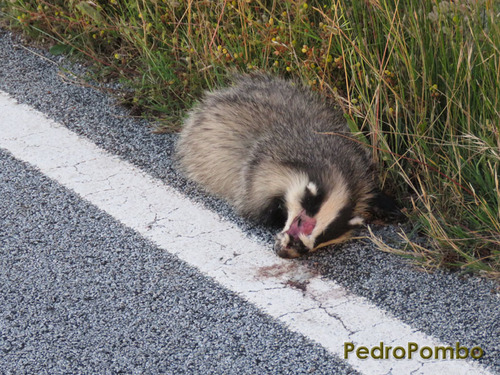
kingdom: Animalia
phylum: Chordata
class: Mammalia
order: Carnivora
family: Mustelidae
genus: Meles
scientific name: Meles meles
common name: Eurasian badger
